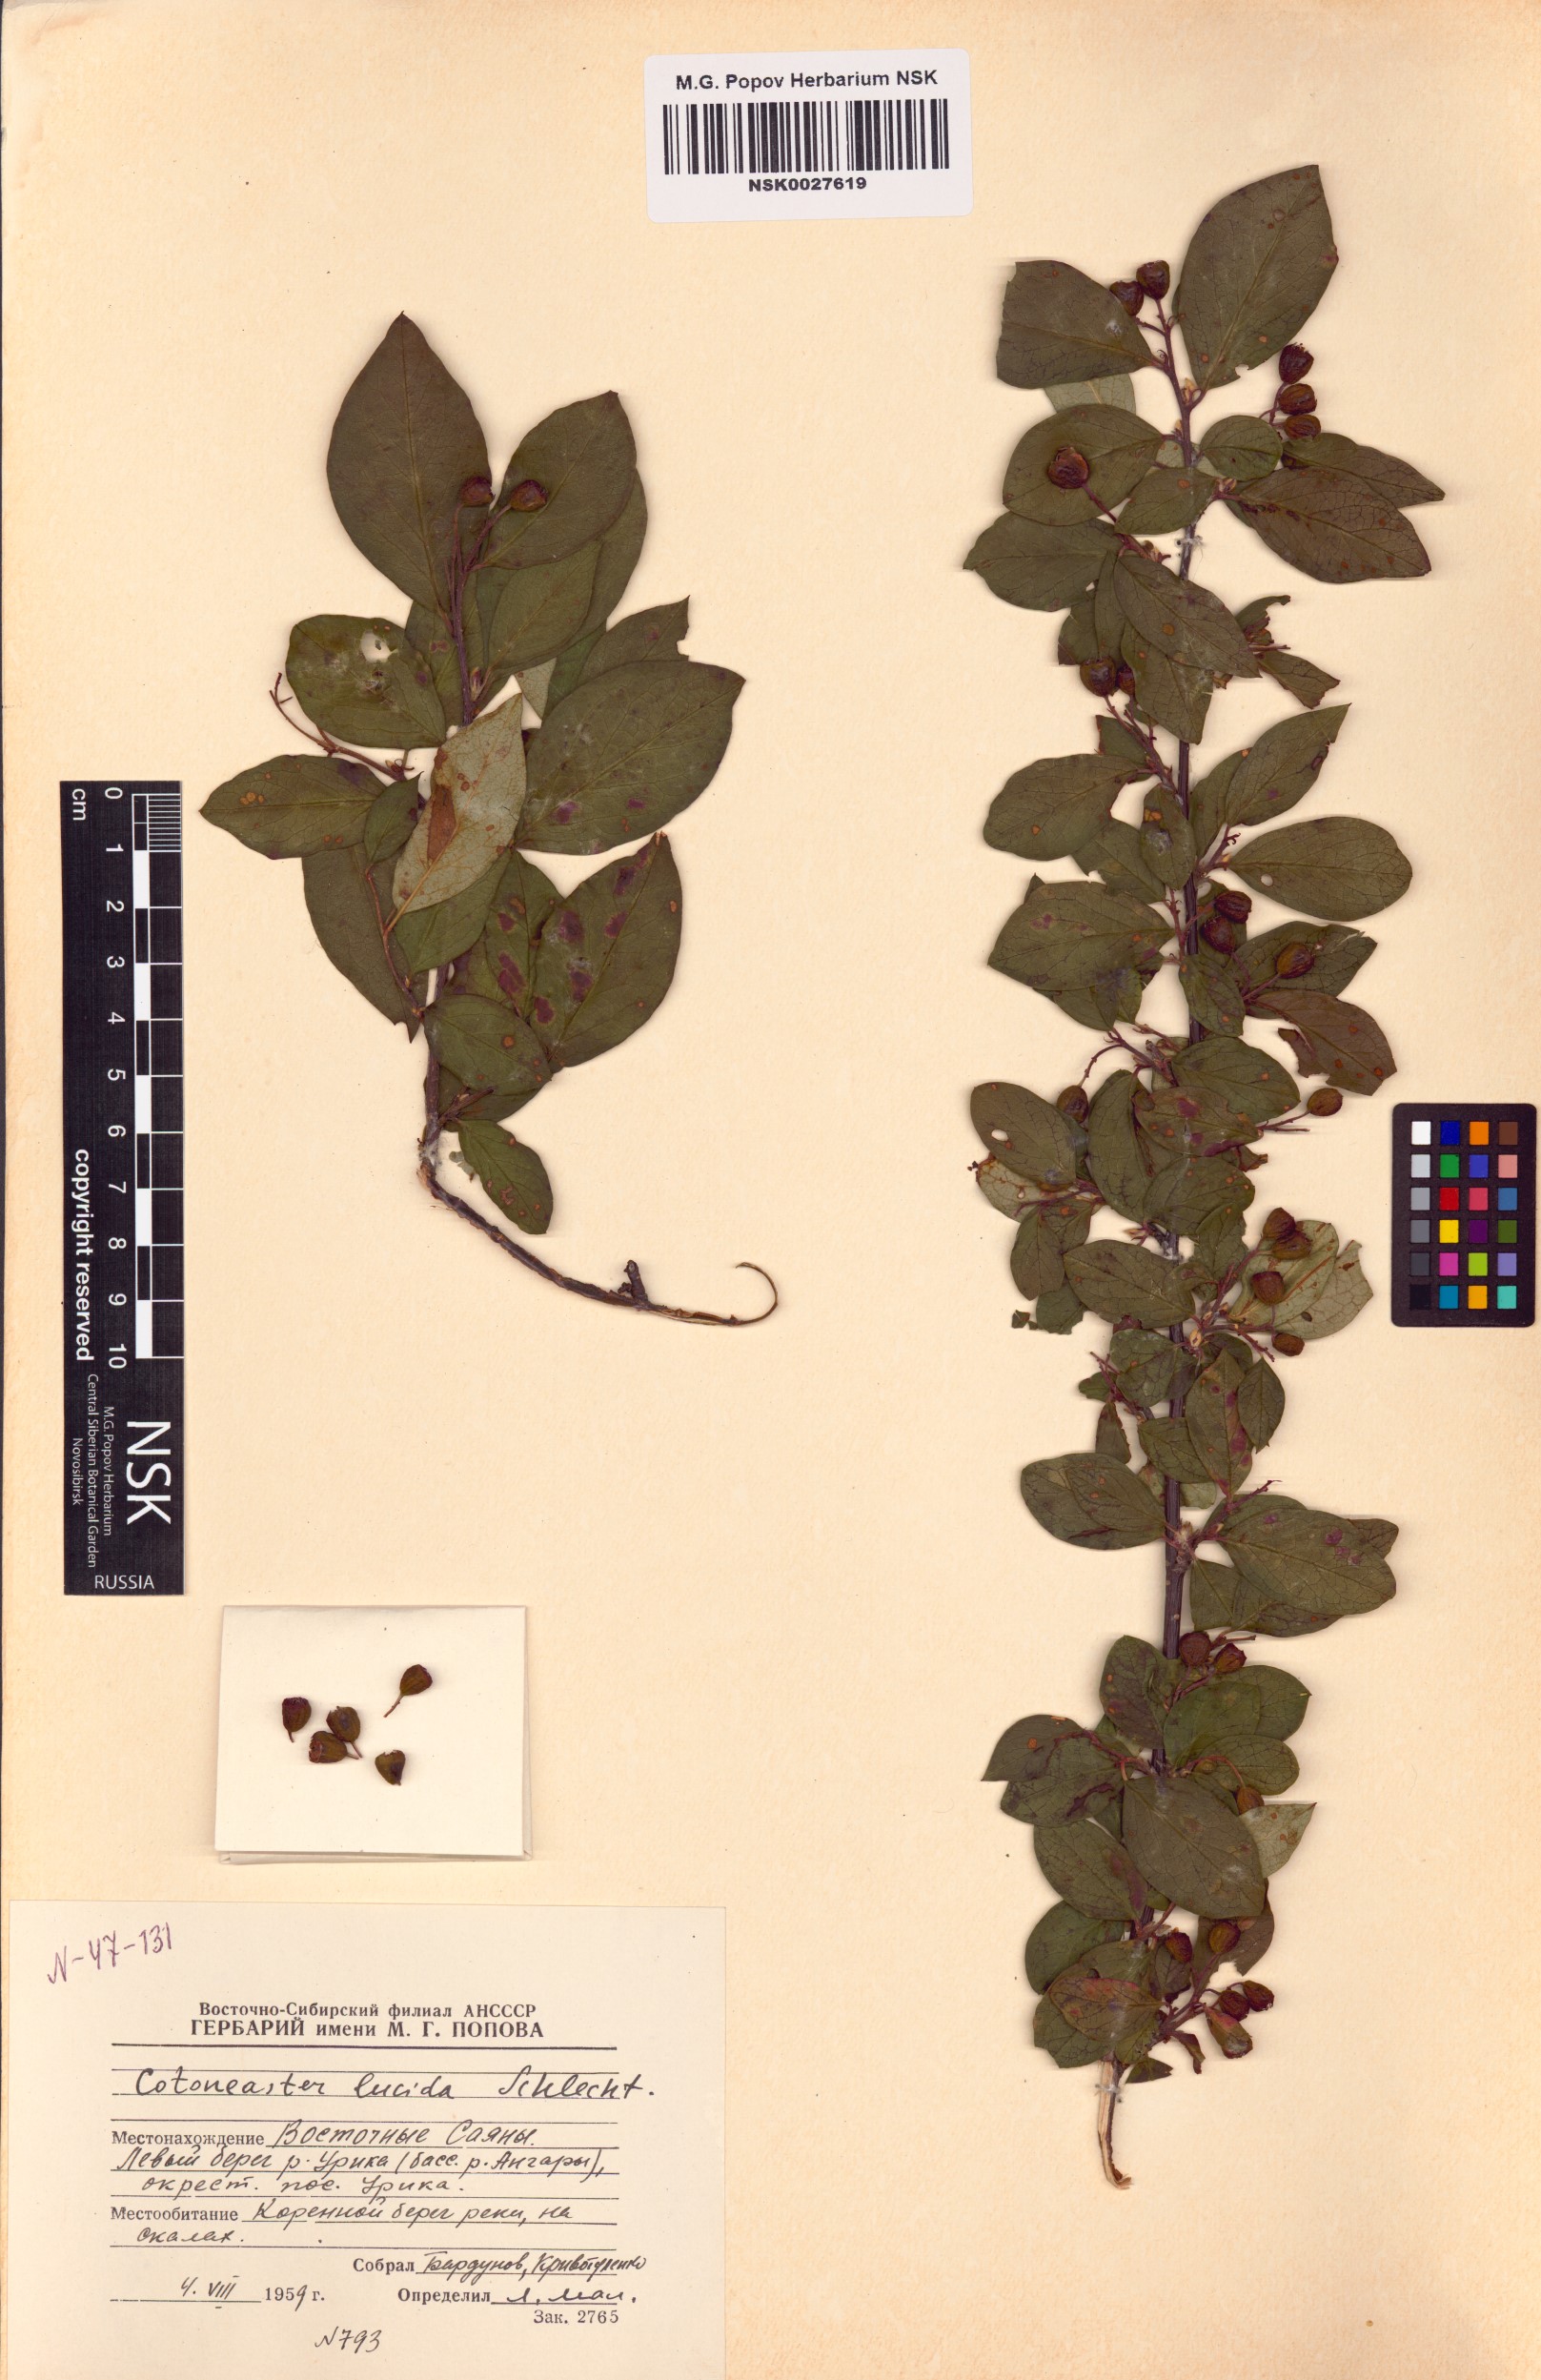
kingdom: Plantae
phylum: Tracheophyta
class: Magnoliopsida
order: Rosales
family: Rosaceae
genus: Cotoneaster
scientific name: Cotoneaster acutifolius
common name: Peking cotoneaster
